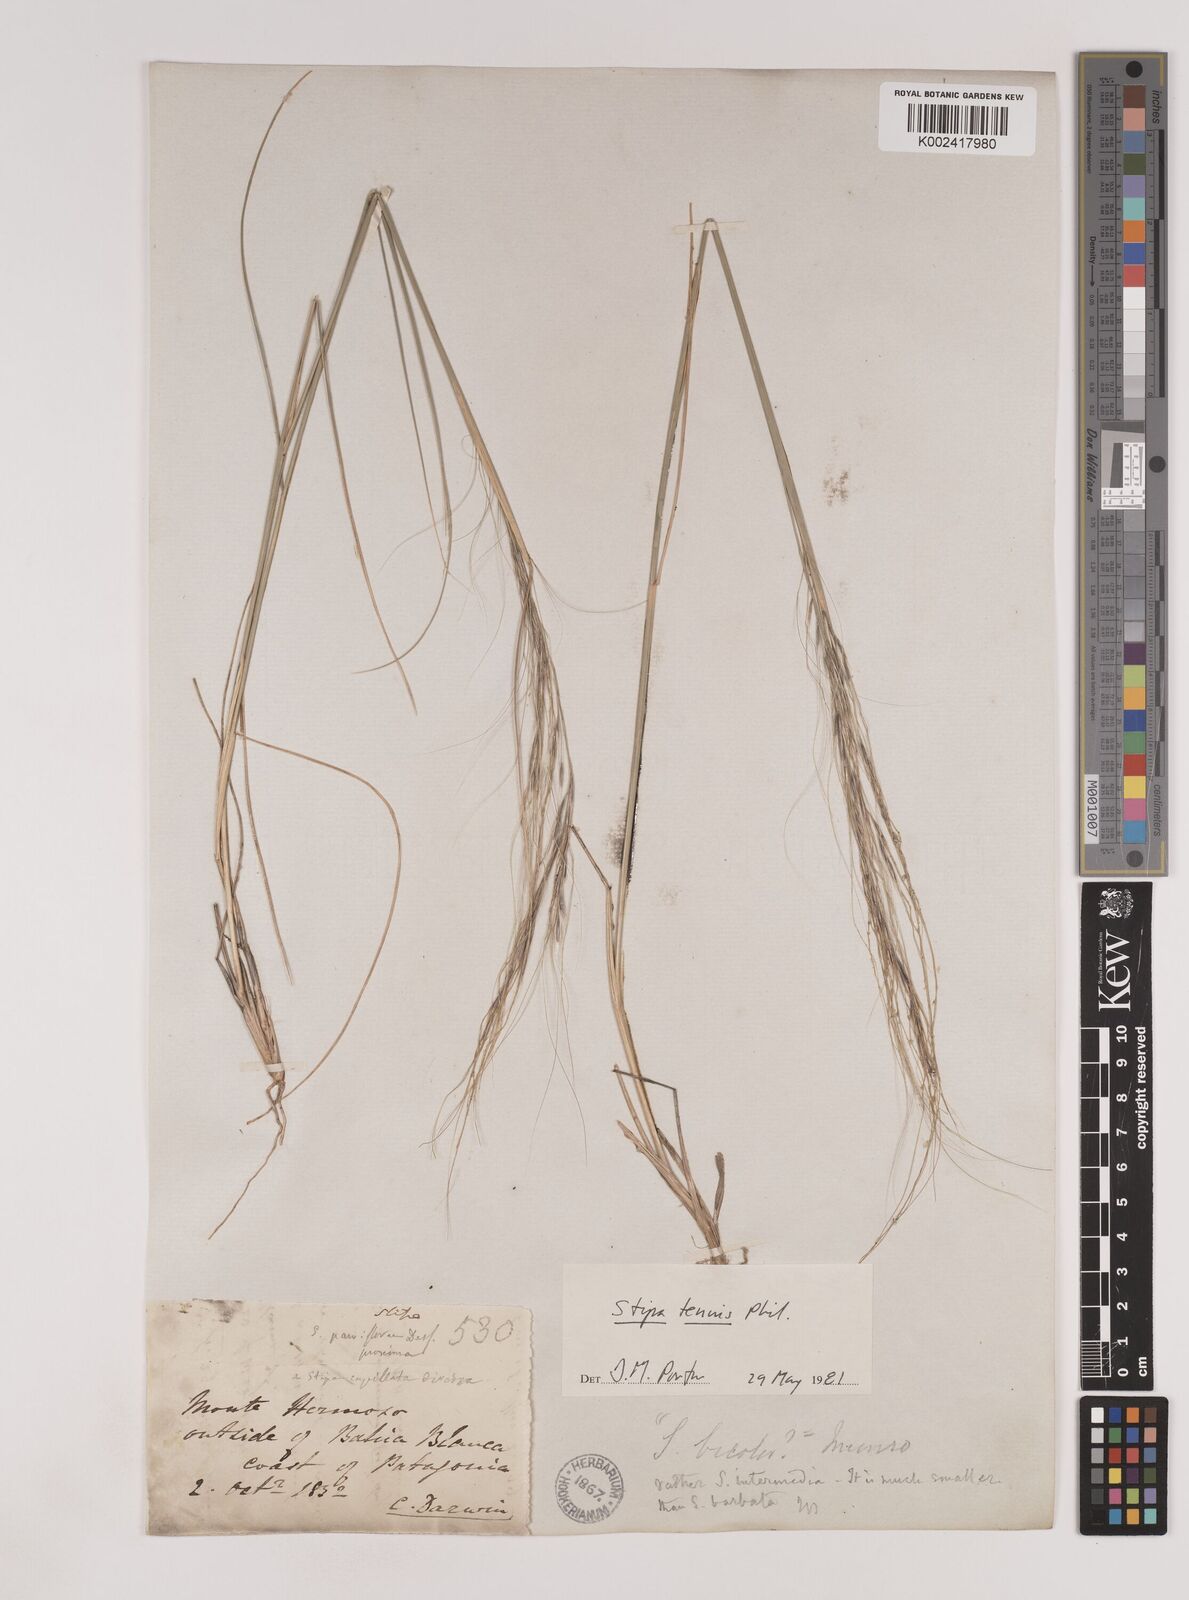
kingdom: Plantae
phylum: Tracheophyta
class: Liliopsida
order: Poales
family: Poaceae
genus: Nassella
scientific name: Nassella tenuis
